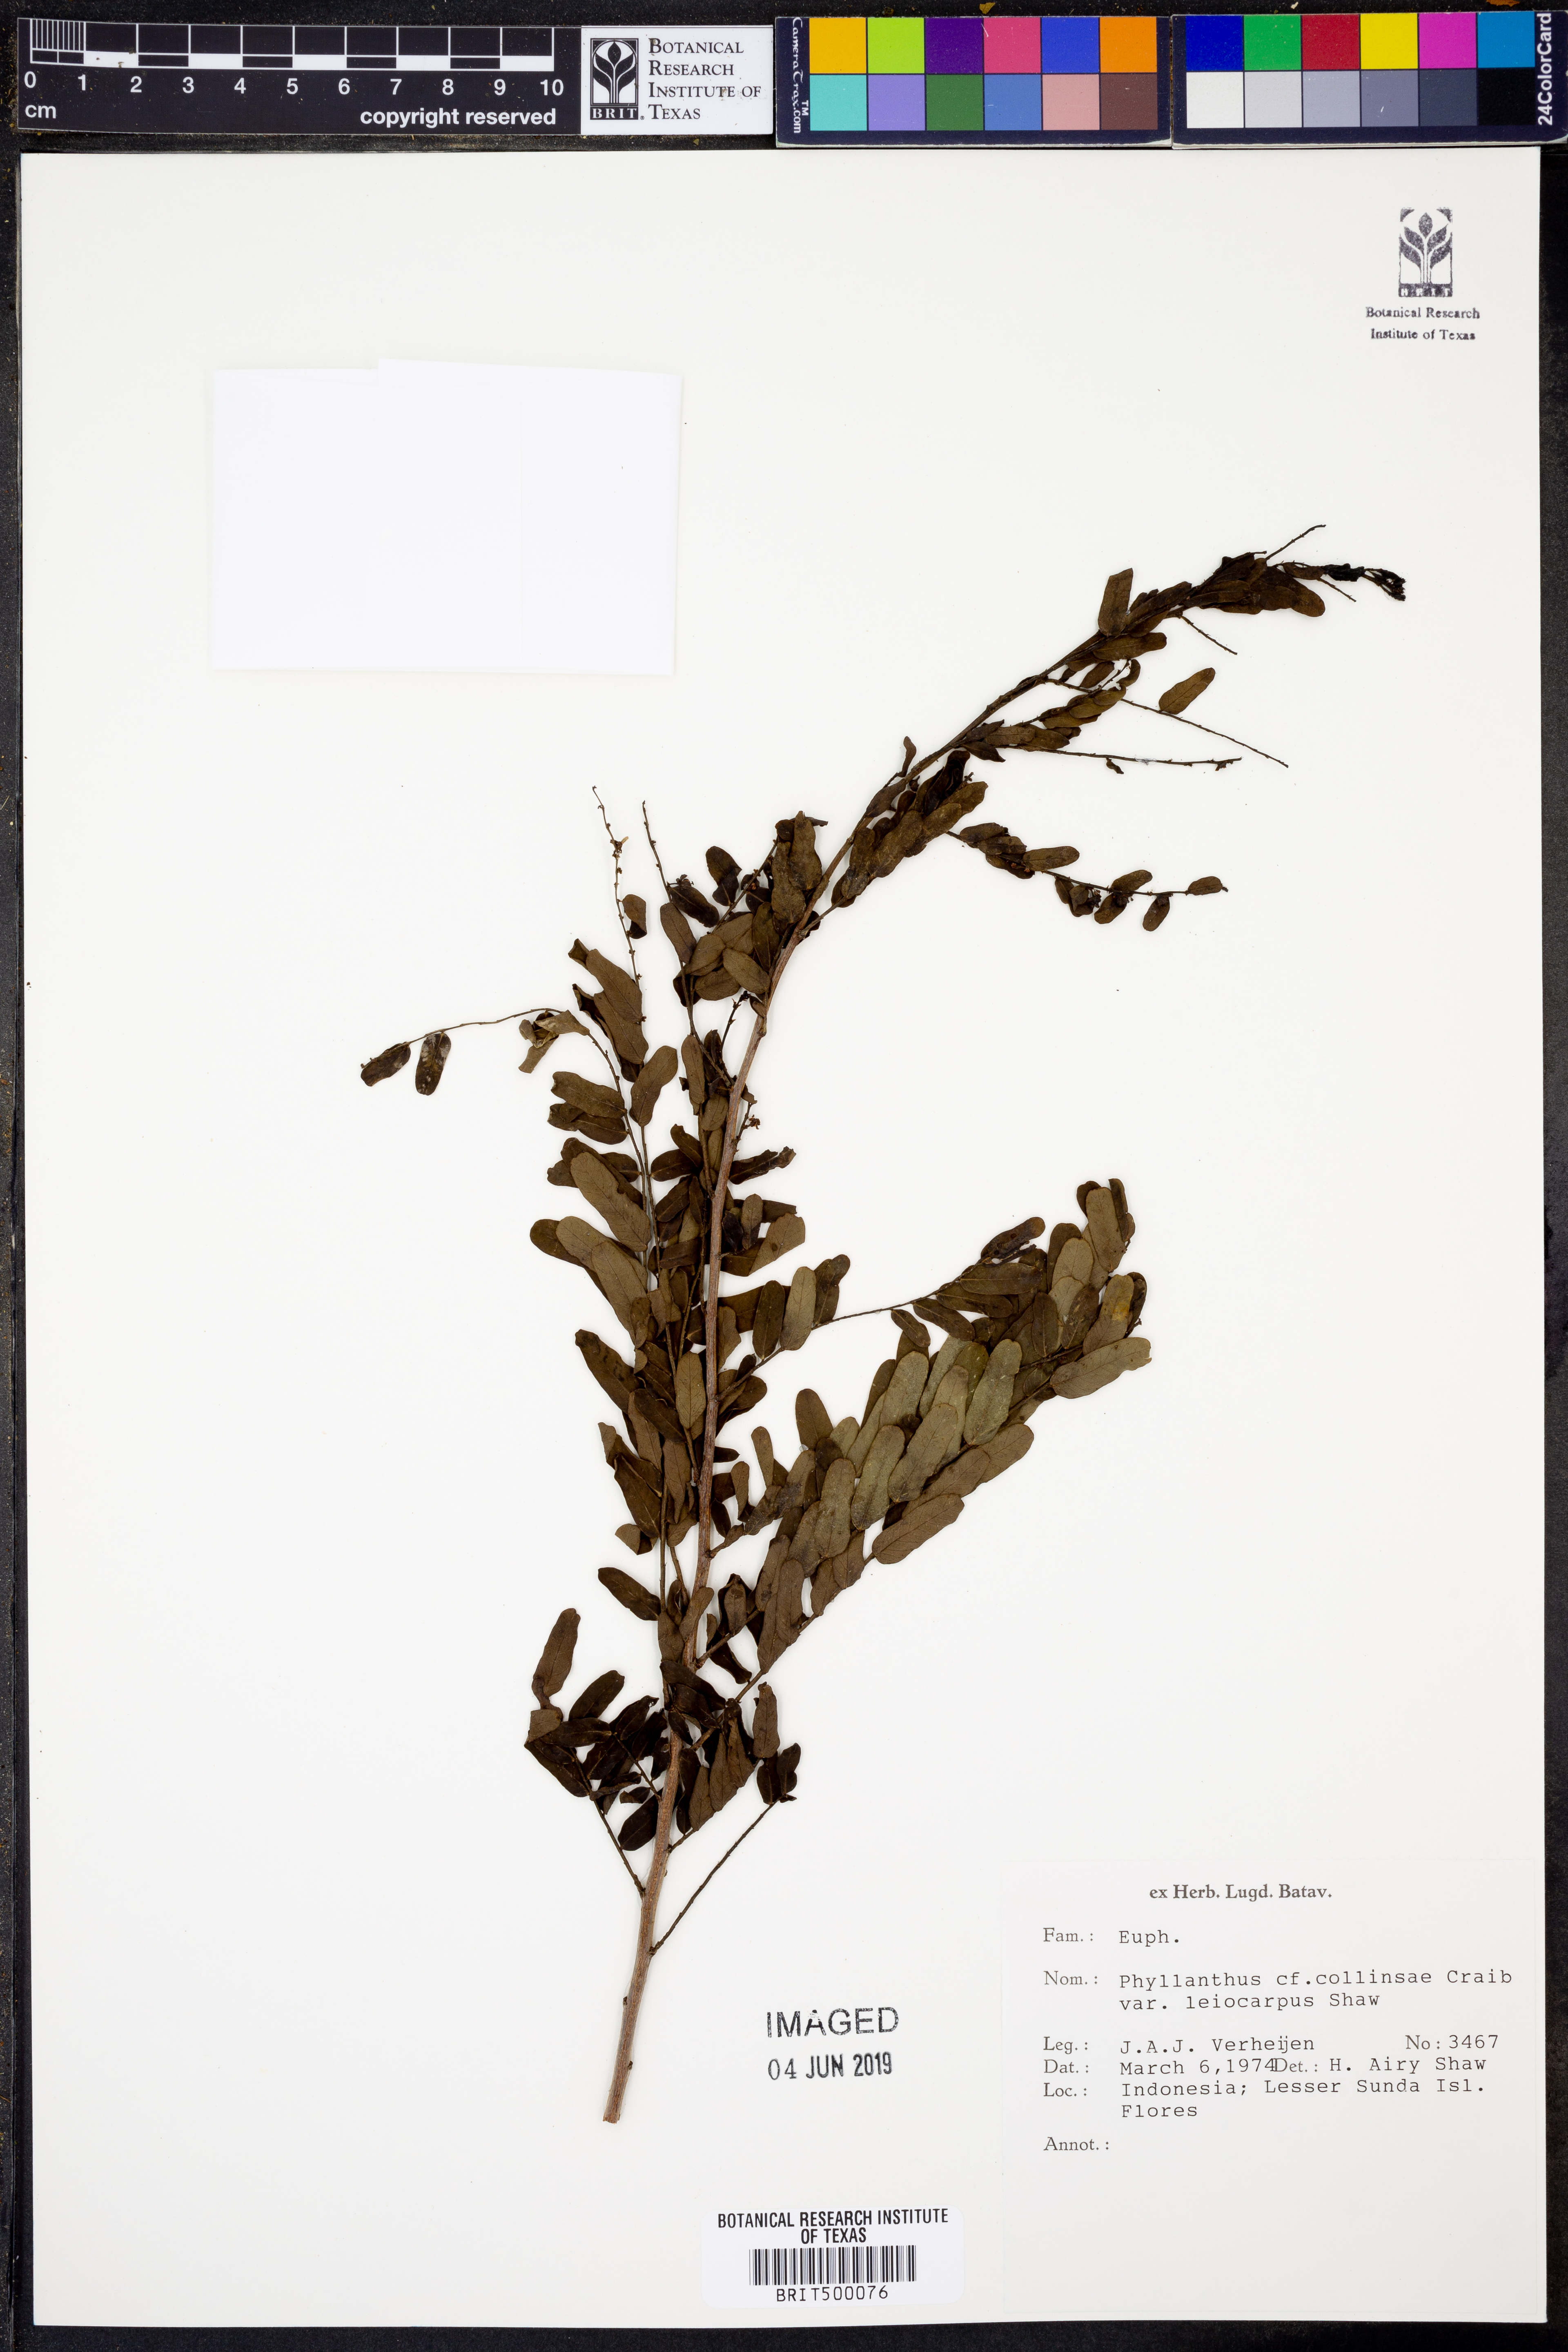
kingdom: Plantae
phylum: Tracheophyta
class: Magnoliopsida
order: Malpighiales
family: Phyllanthaceae
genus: Phyllanthus
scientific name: Phyllanthus collinsae
